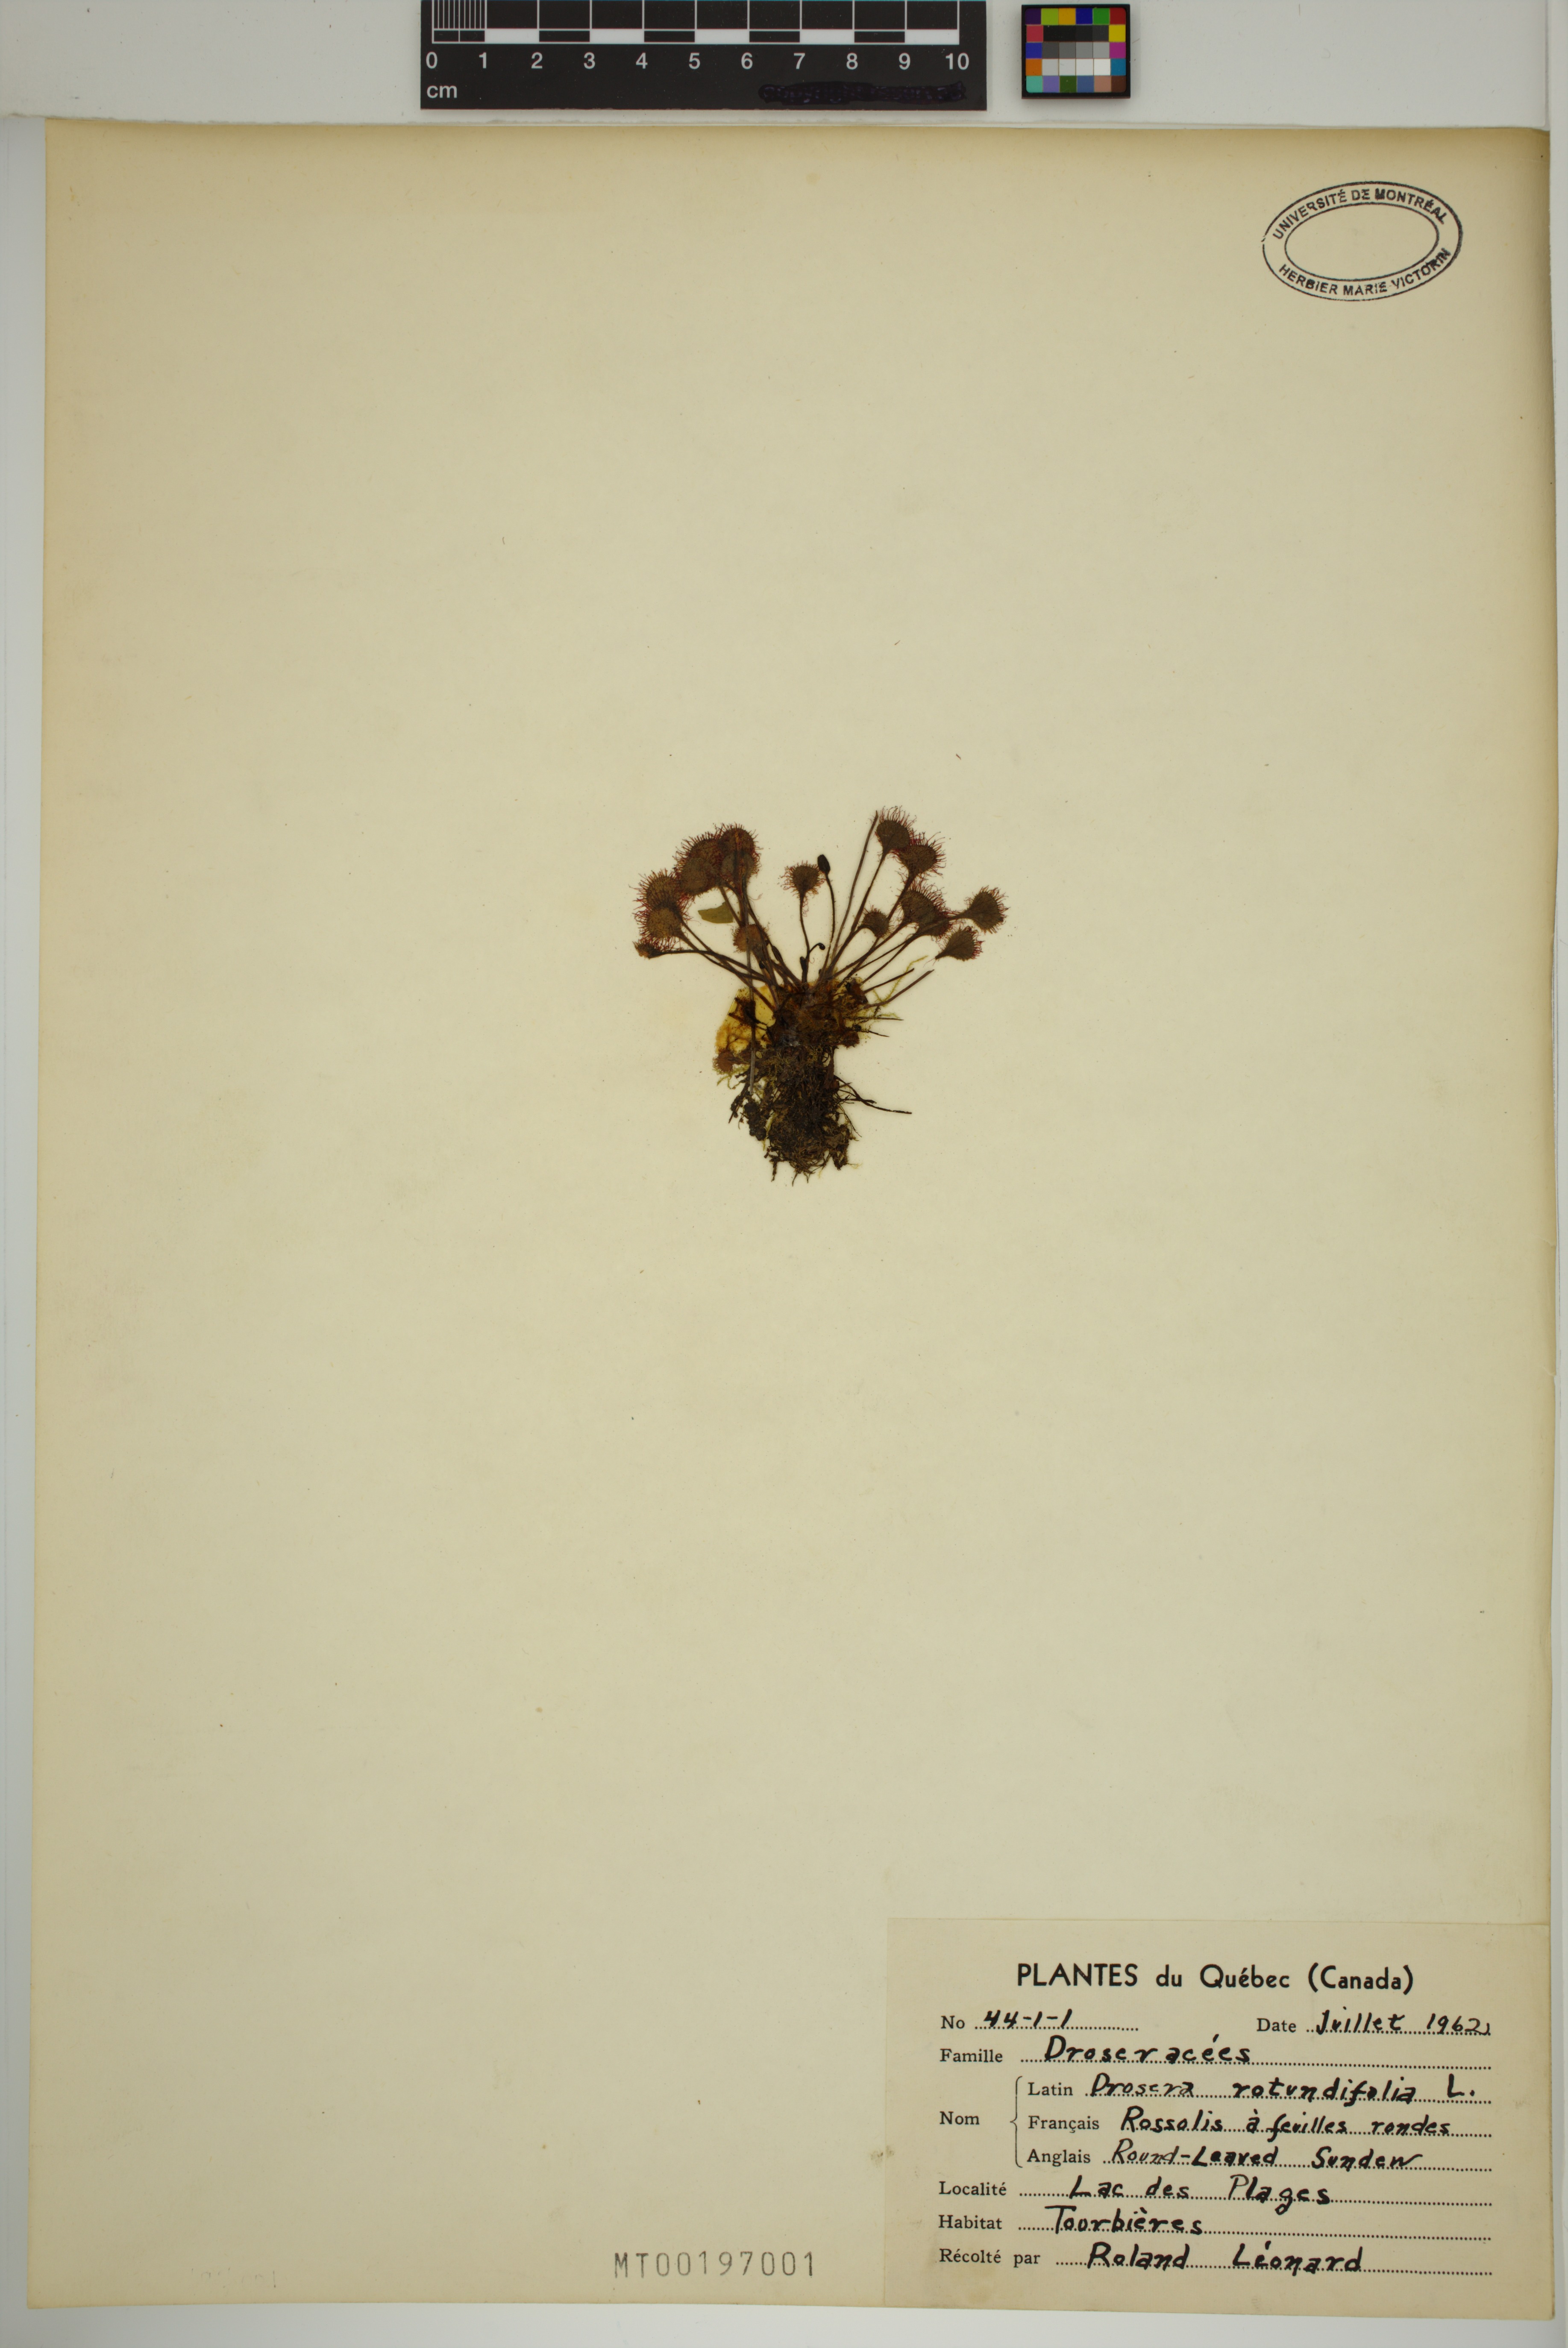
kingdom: Plantae
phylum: Tracheophyta
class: Magnoliopsida
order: Caryophyllales
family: Droseraceae
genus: Drosera
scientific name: Drosera rotundifolia
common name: Round-leaved sundew
